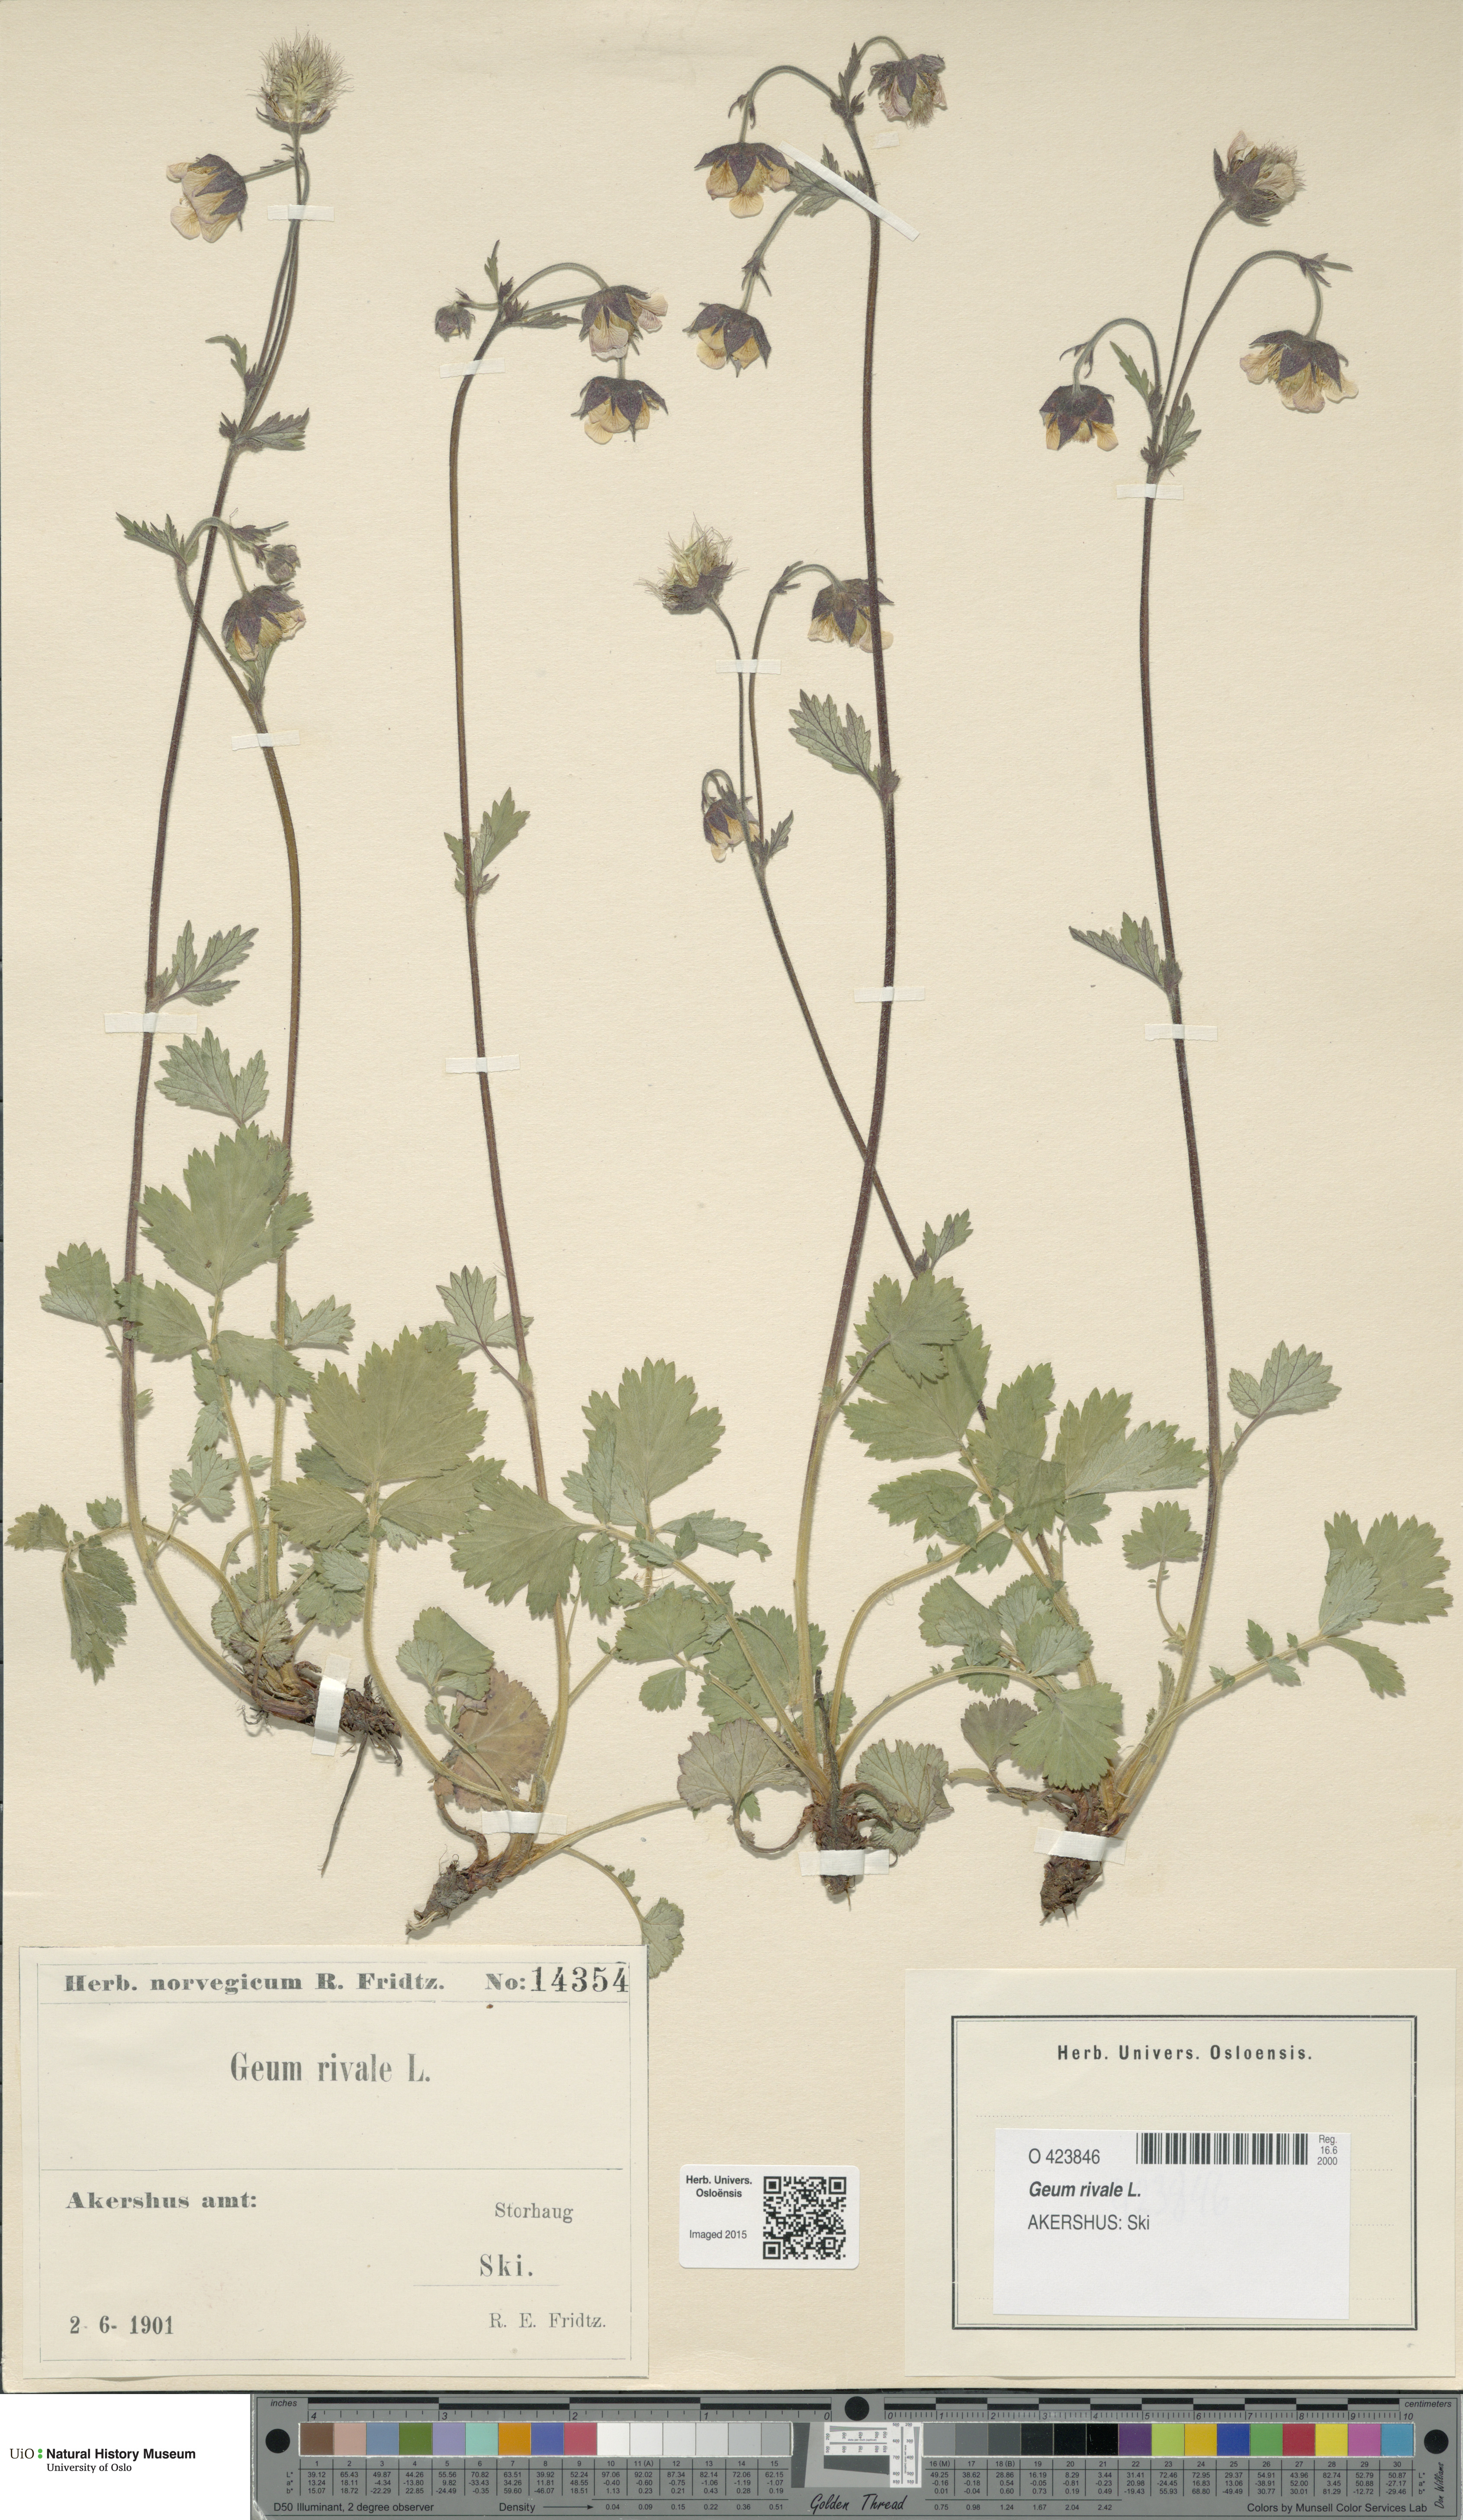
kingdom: Plantae
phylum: Tracheophyta
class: Magnoliopsida
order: Rosales
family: Rosaceae
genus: Geum
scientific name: Geum rivale
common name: Water avens
